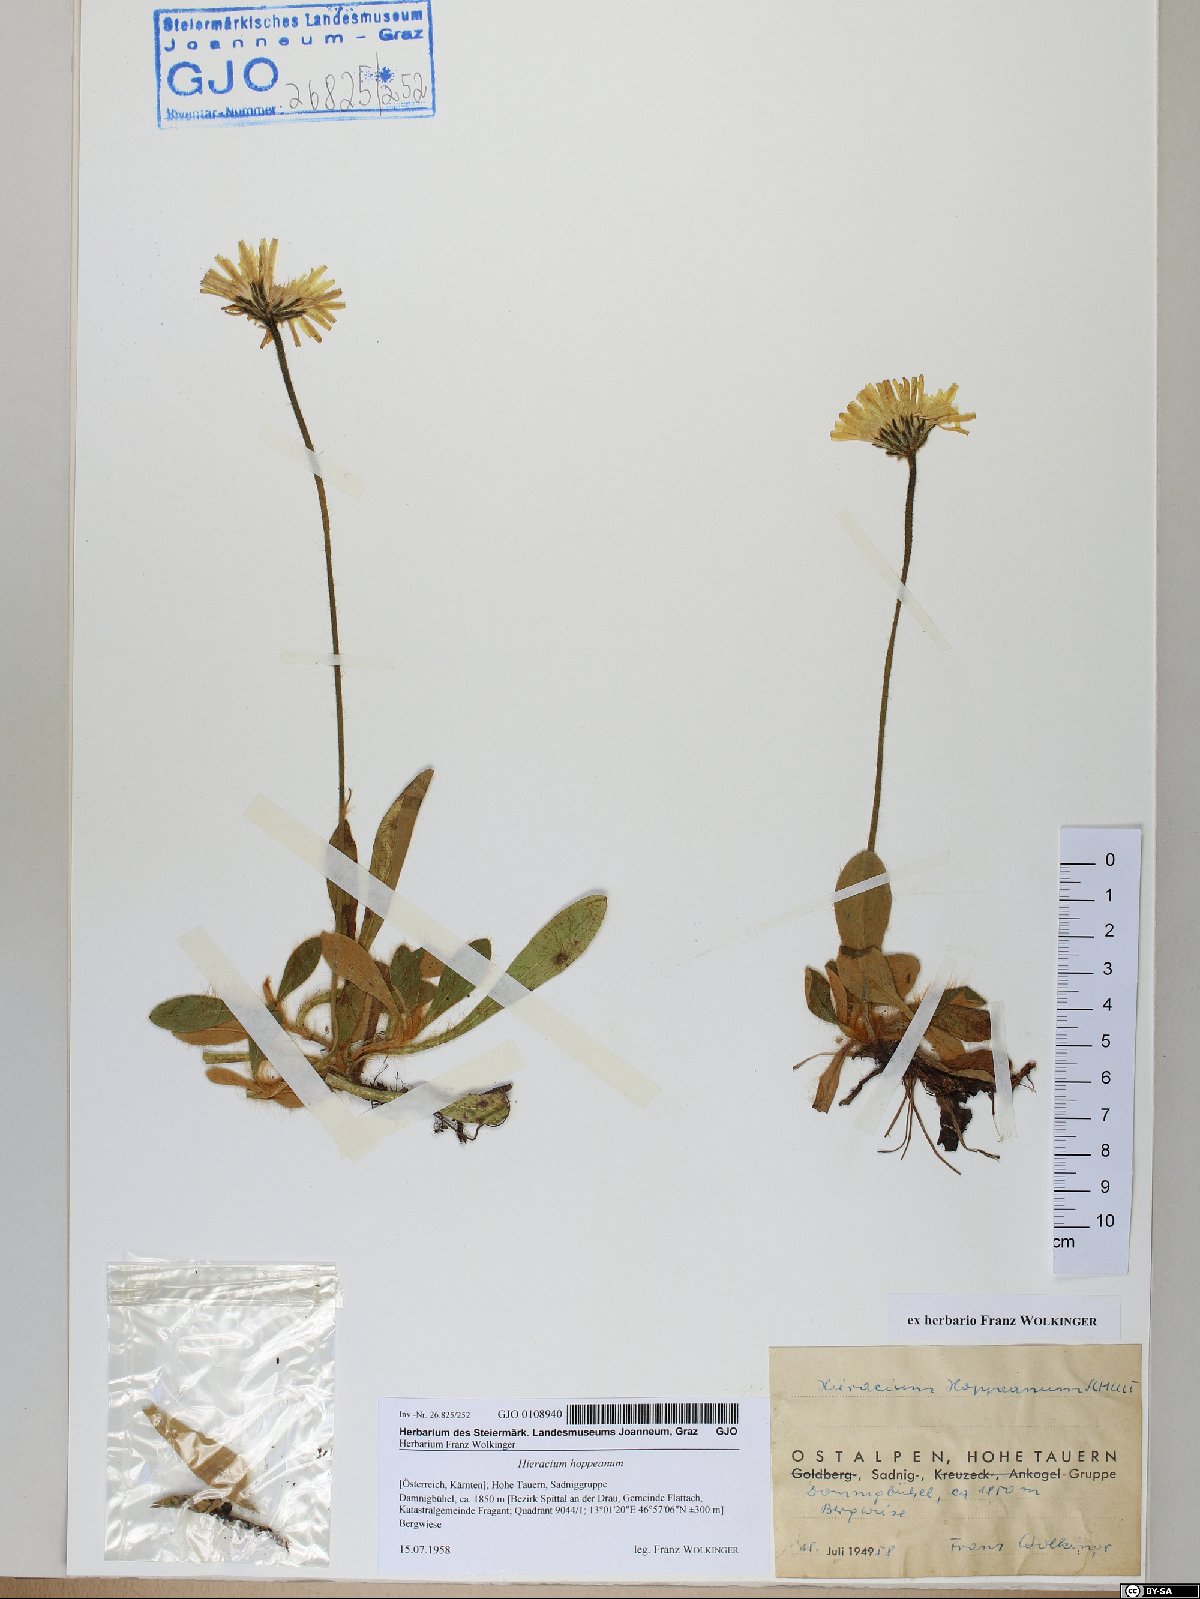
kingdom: Plantae
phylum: Tracheophyta
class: Magnoliopsida
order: Asterales
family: Asteraceae
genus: Pilosella
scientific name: Pilosella hoppeana
